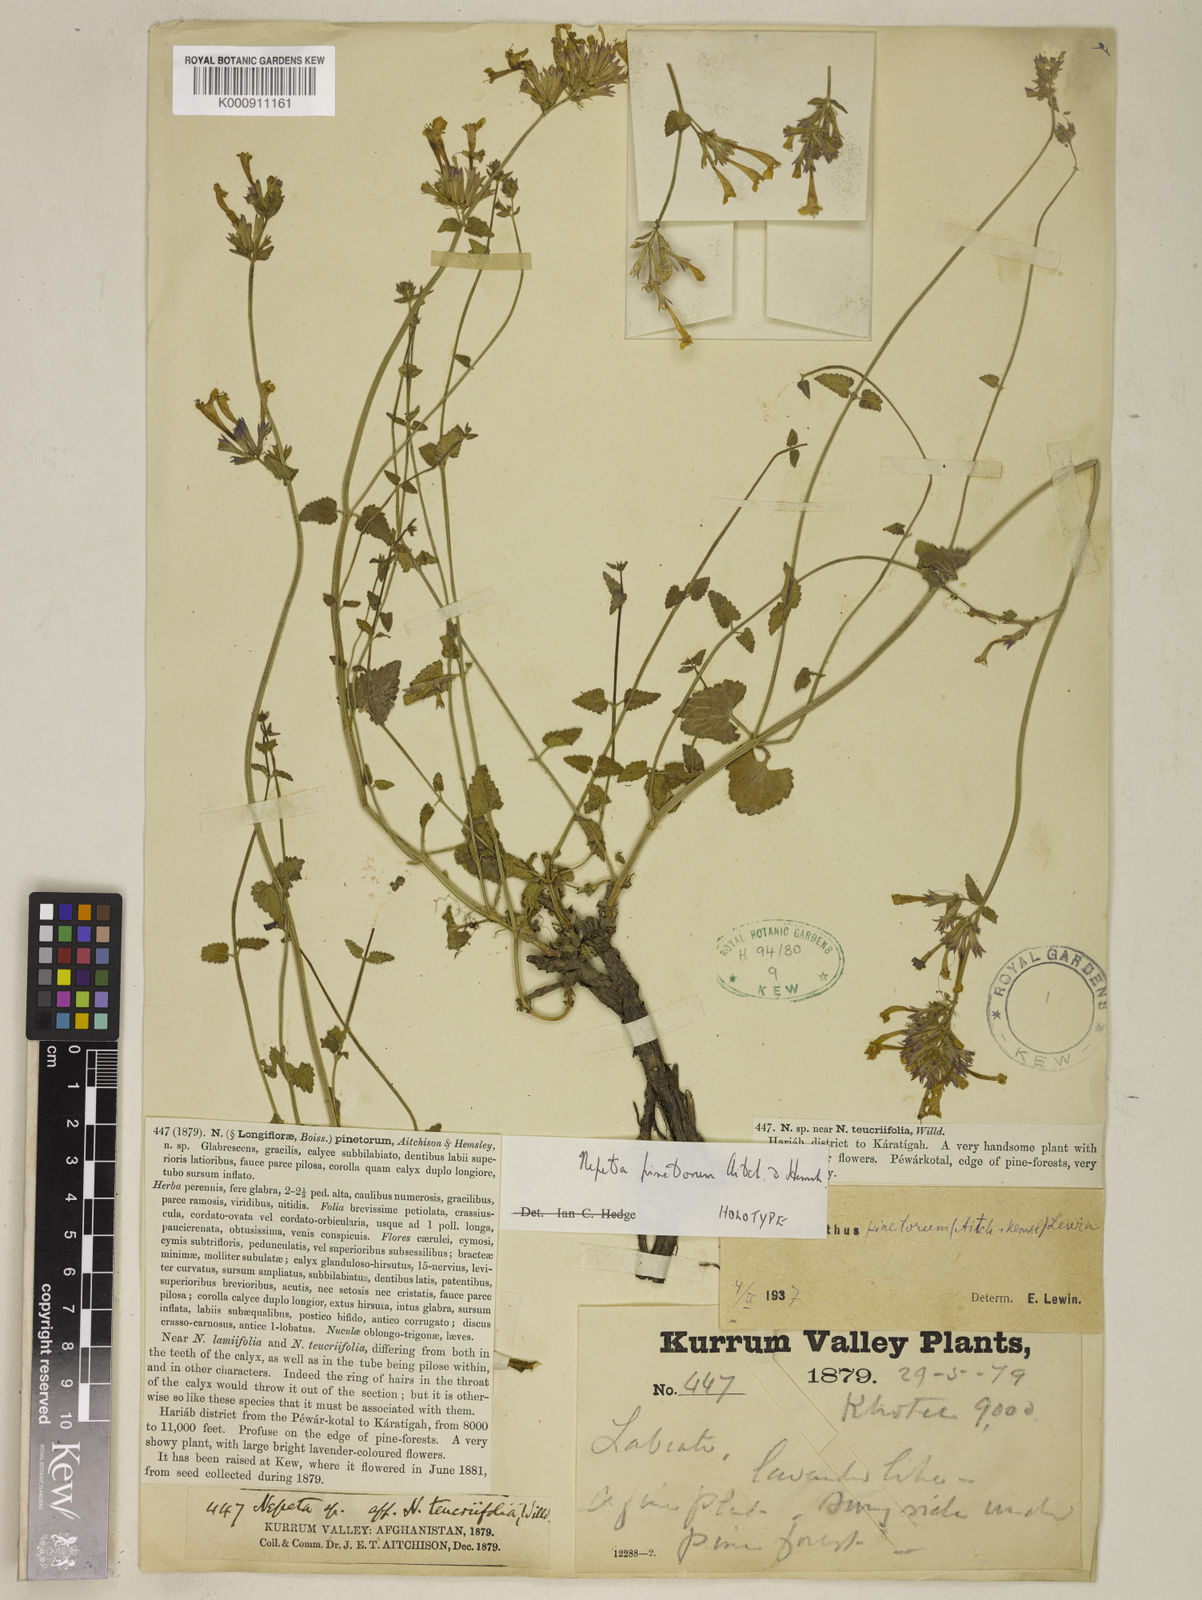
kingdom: Plantae
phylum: Tracheophyta
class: Magnoliopsida
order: Lamiales
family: Lamiaceae
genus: Nepeta
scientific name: Nepeta
